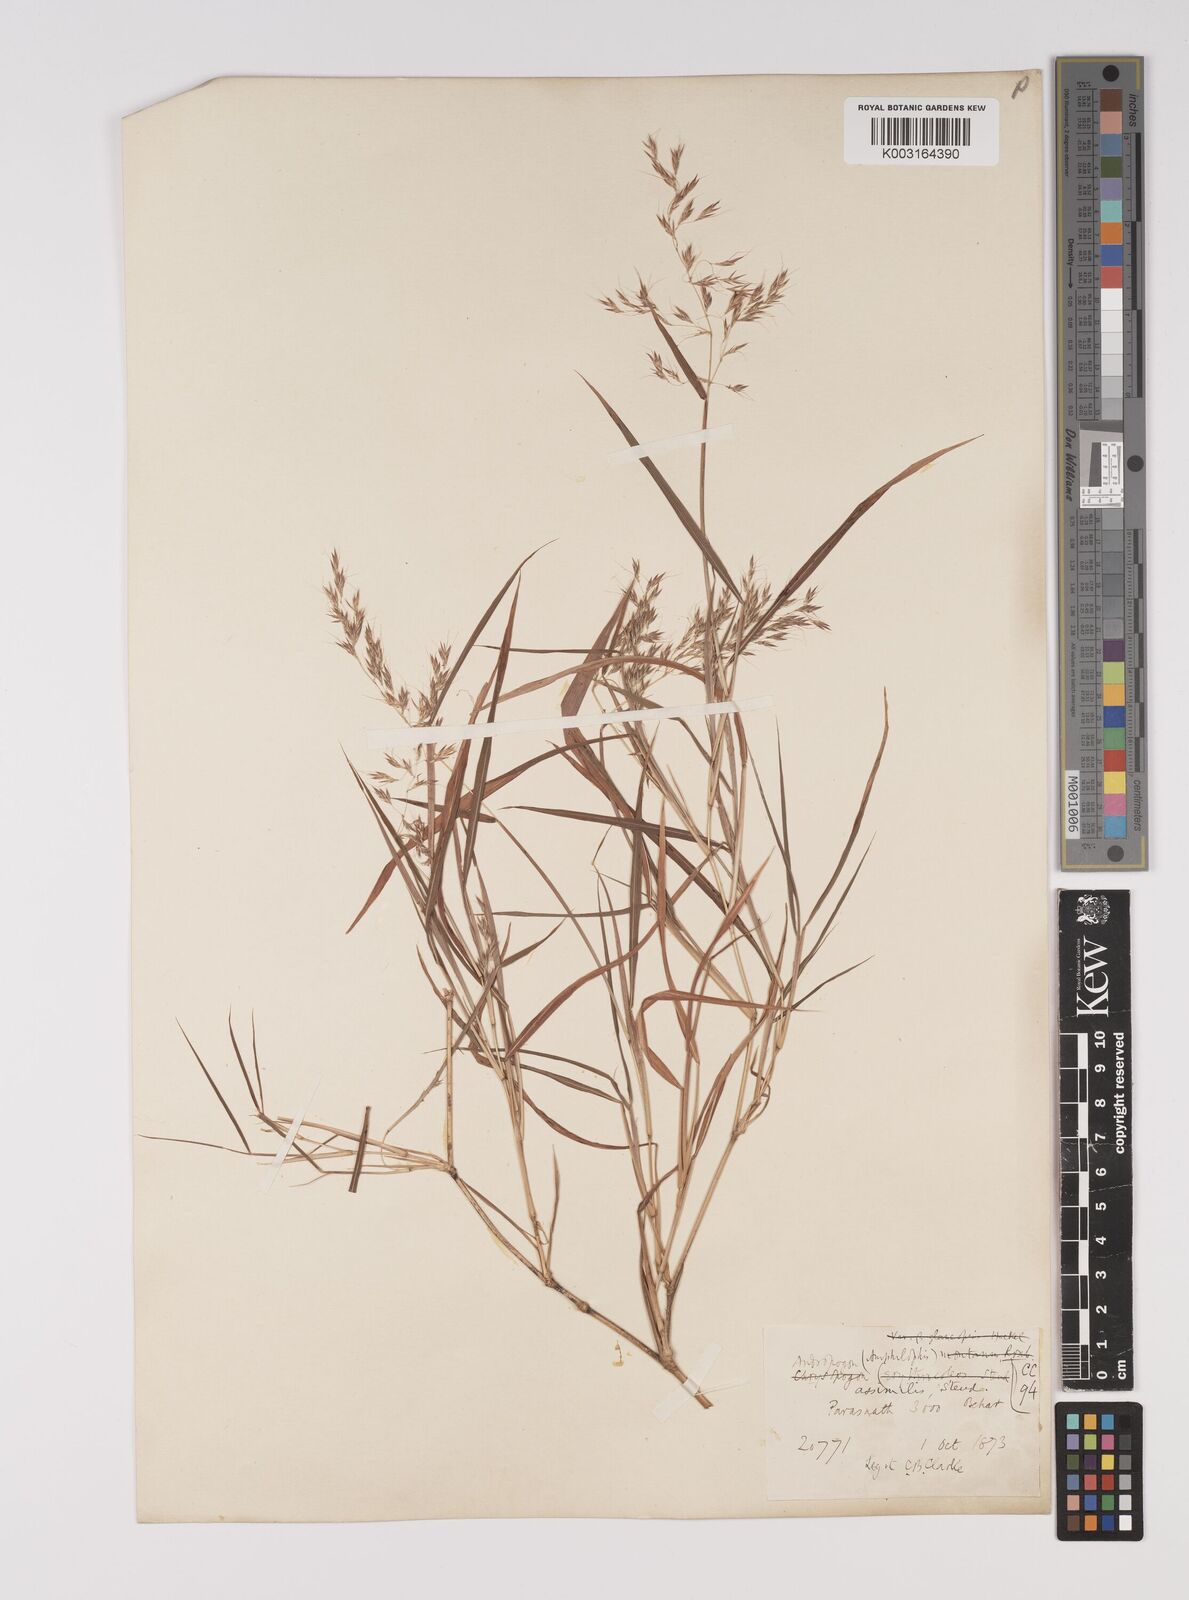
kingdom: Plantae
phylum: Tracheophyta
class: Liliopsida
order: Poales
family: Poaceae
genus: Capillipedium
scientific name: Capillipedium assimile
